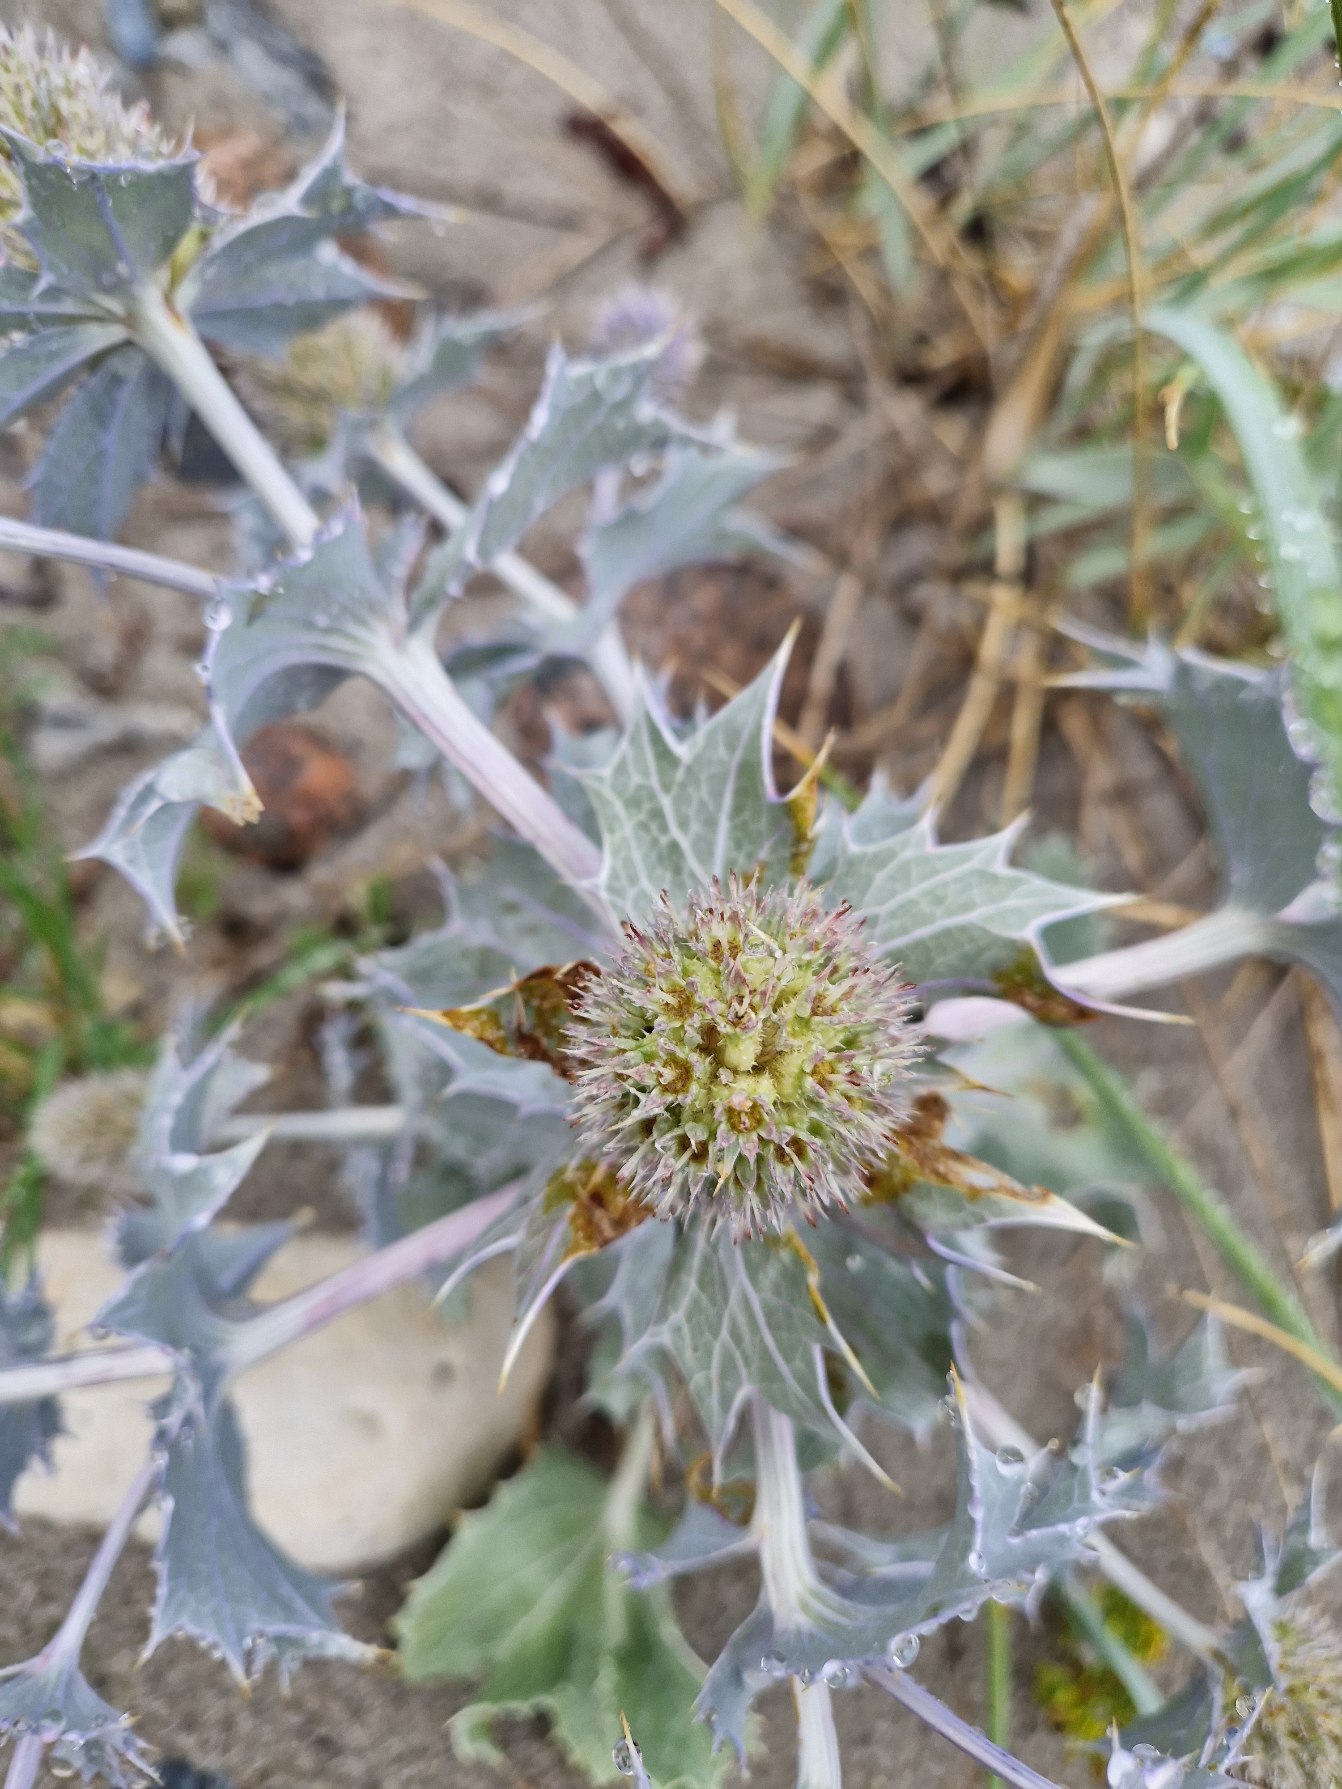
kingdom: Plantae
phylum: Tracheophyta
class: Magnoliopsida
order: Apiales
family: Apiaceae
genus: Eryngium
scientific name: Eryngium maritimum
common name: Strand-mandstro
